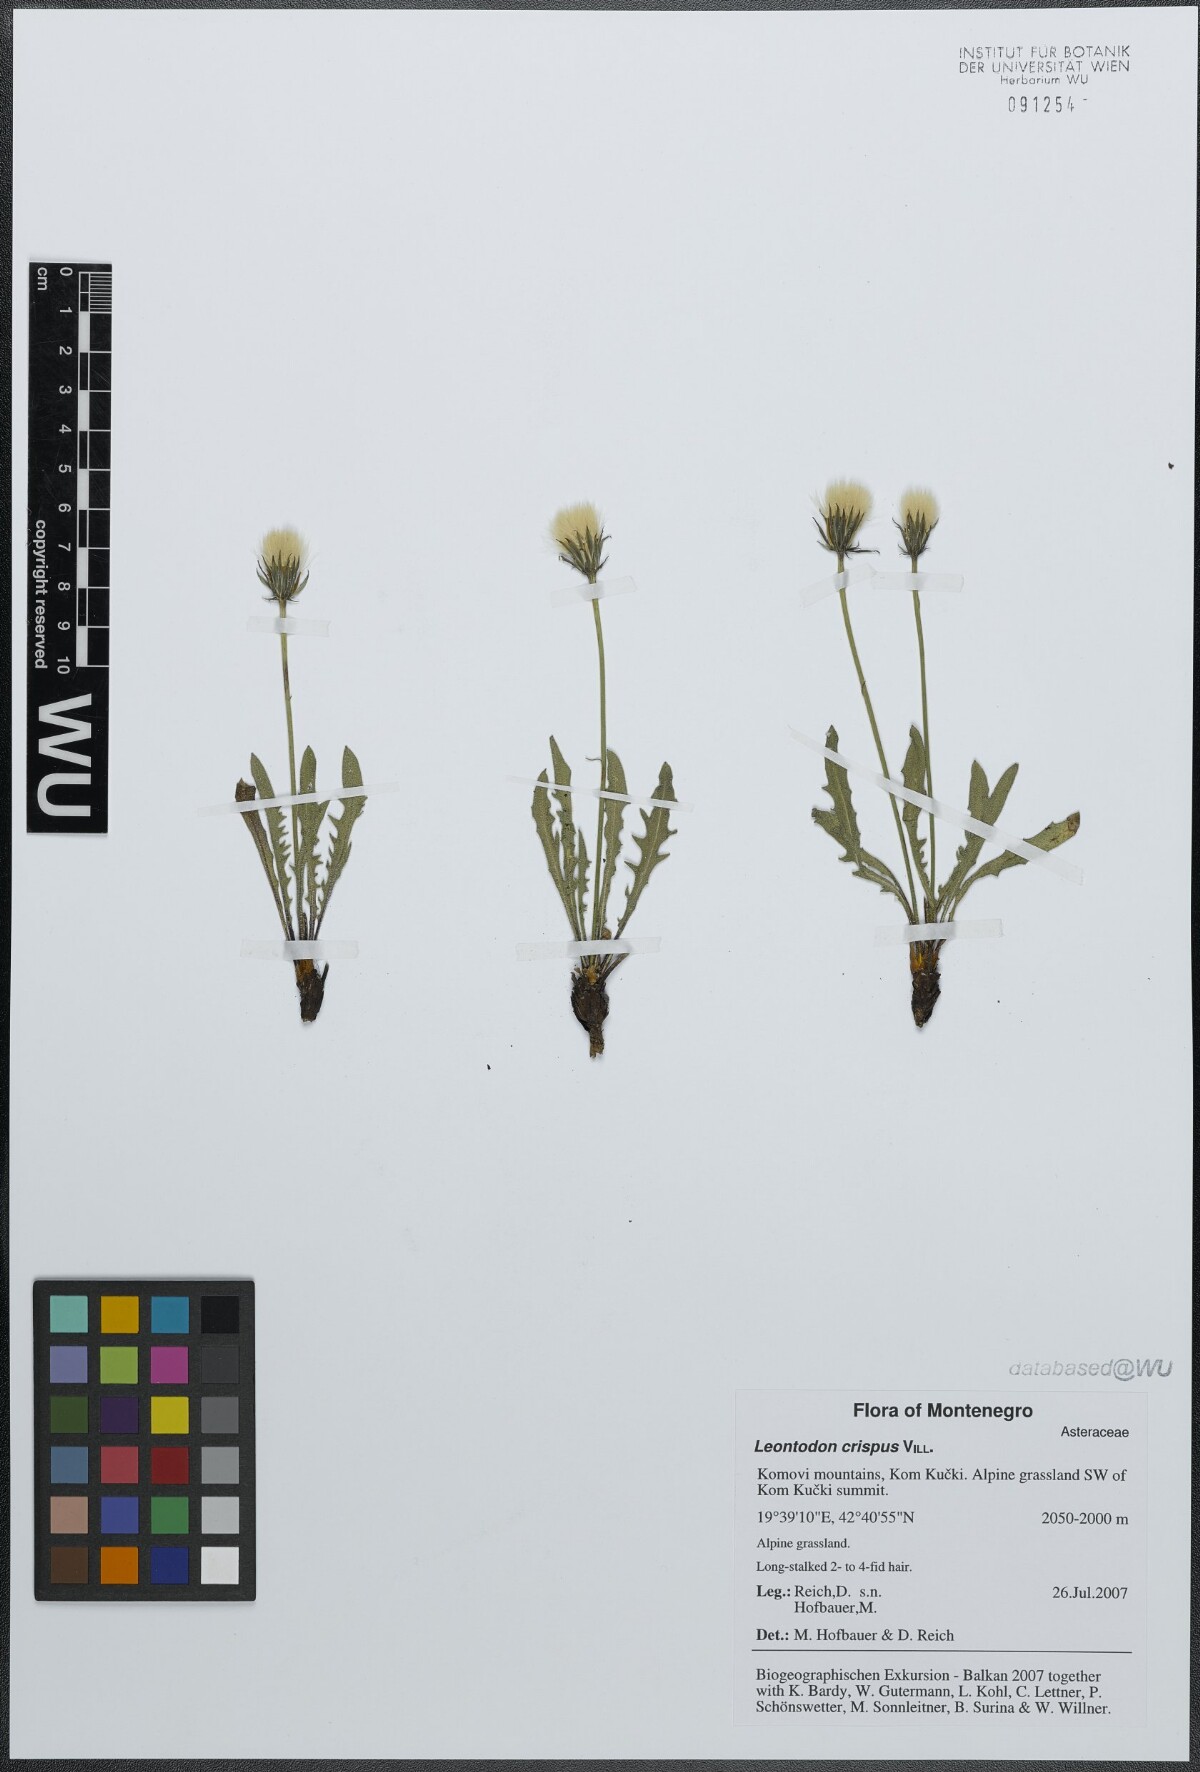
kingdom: Plantae
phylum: Tracheophyta
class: Magnoliopsida
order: Asterales
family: Asteraceae
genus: Leontodon
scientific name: Leontodon crispus
